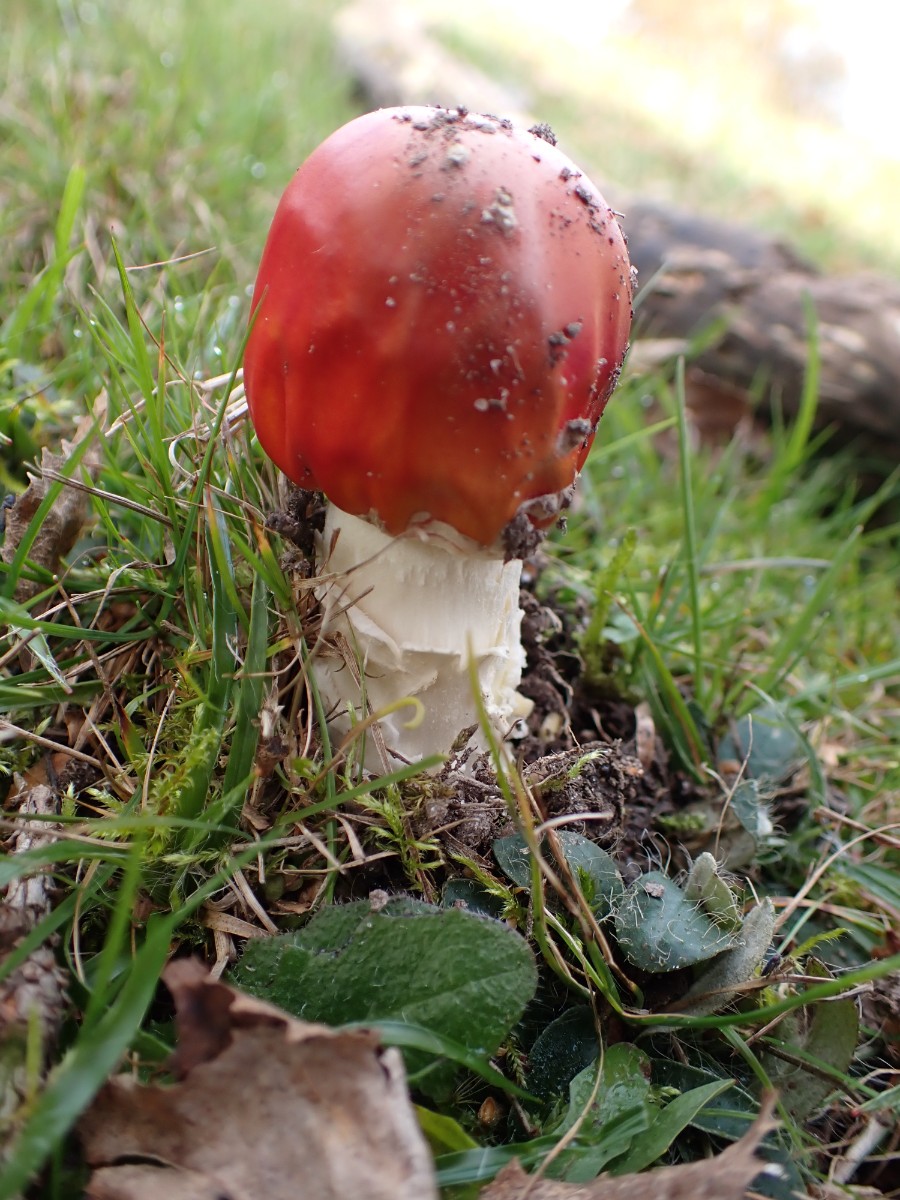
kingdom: Fungi
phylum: Basidiomycota
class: Agaricomycetes
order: Agaricales
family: Amanitaceae
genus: Amanita
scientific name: Amanita muscaria
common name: rød fluesvamp
